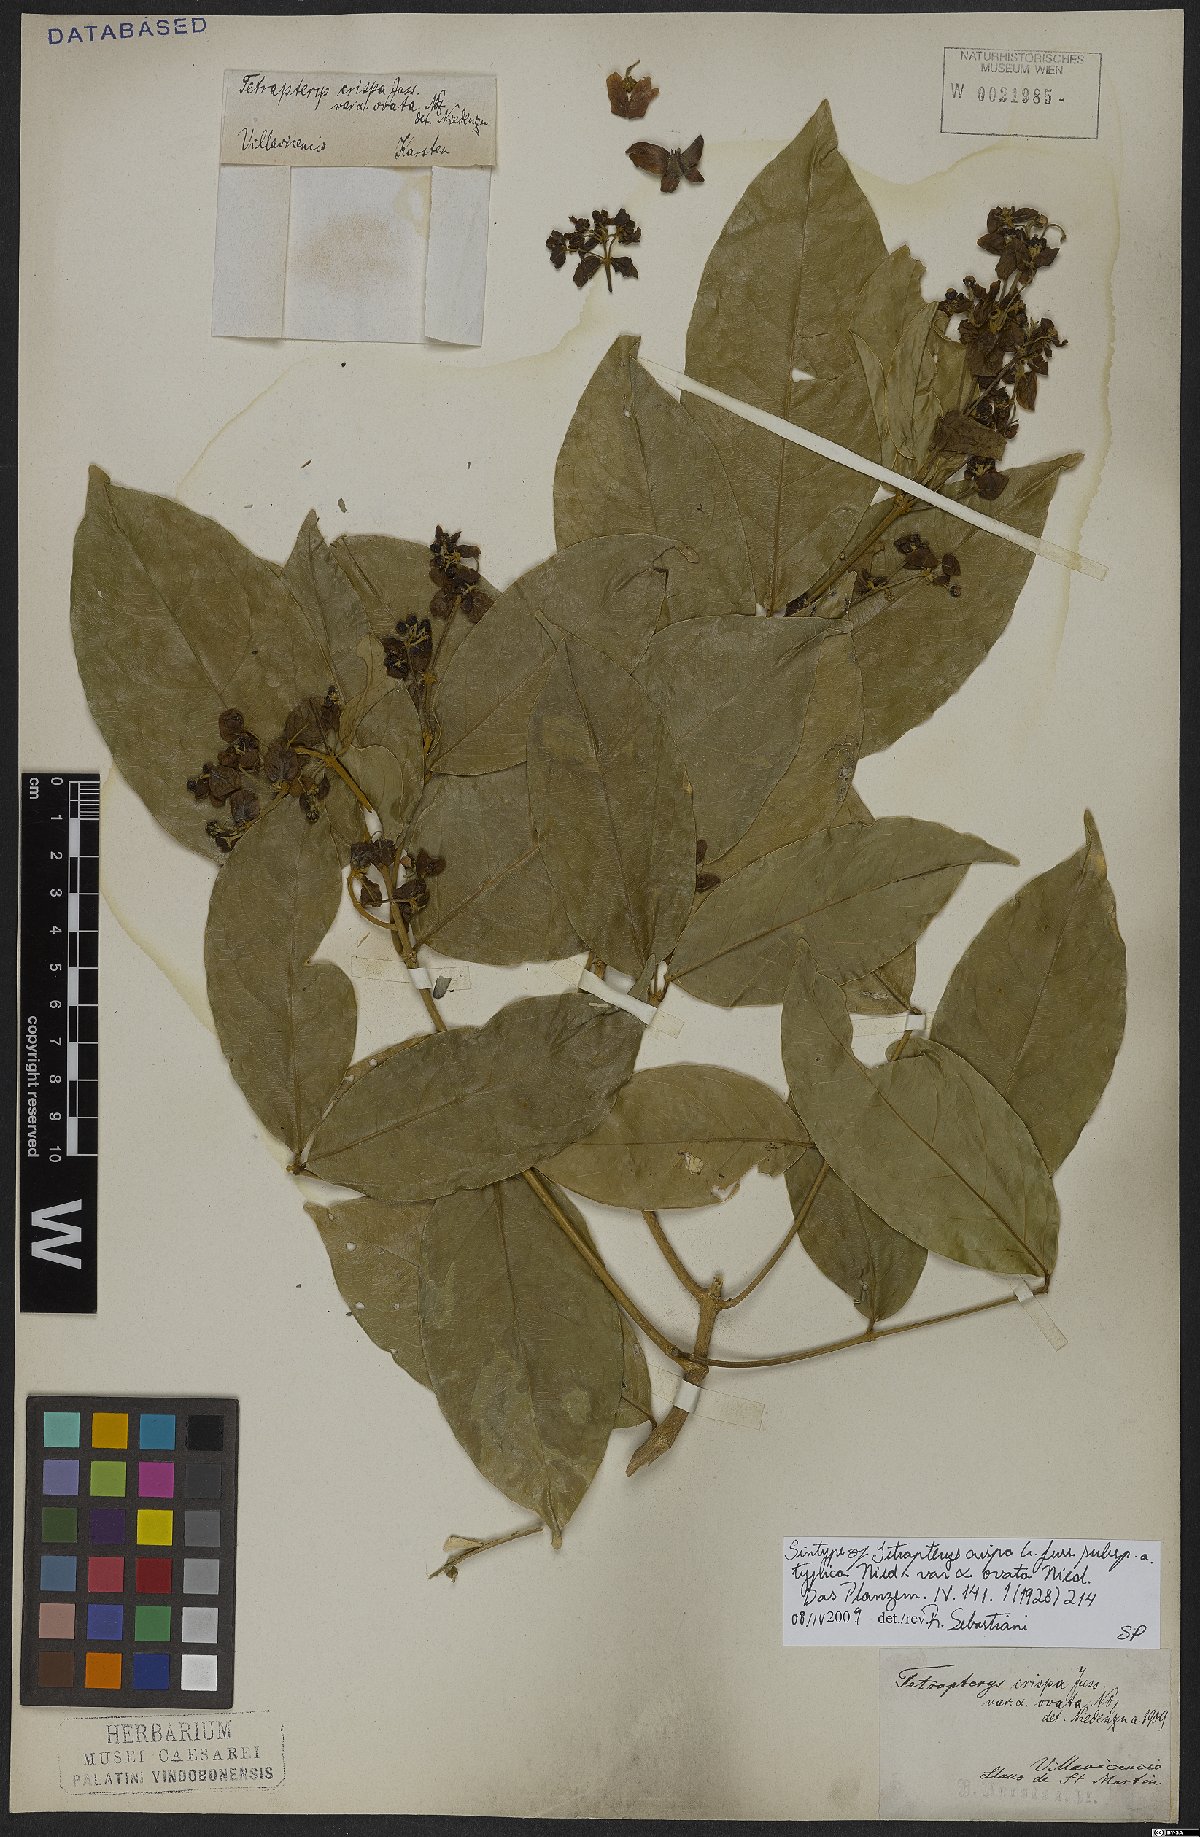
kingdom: Plantae
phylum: Tracheophyta
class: Magnoliopsida
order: Malpighiales
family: Malpighiaceae
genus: Tetrapterys
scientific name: Tetrapterys crispa
